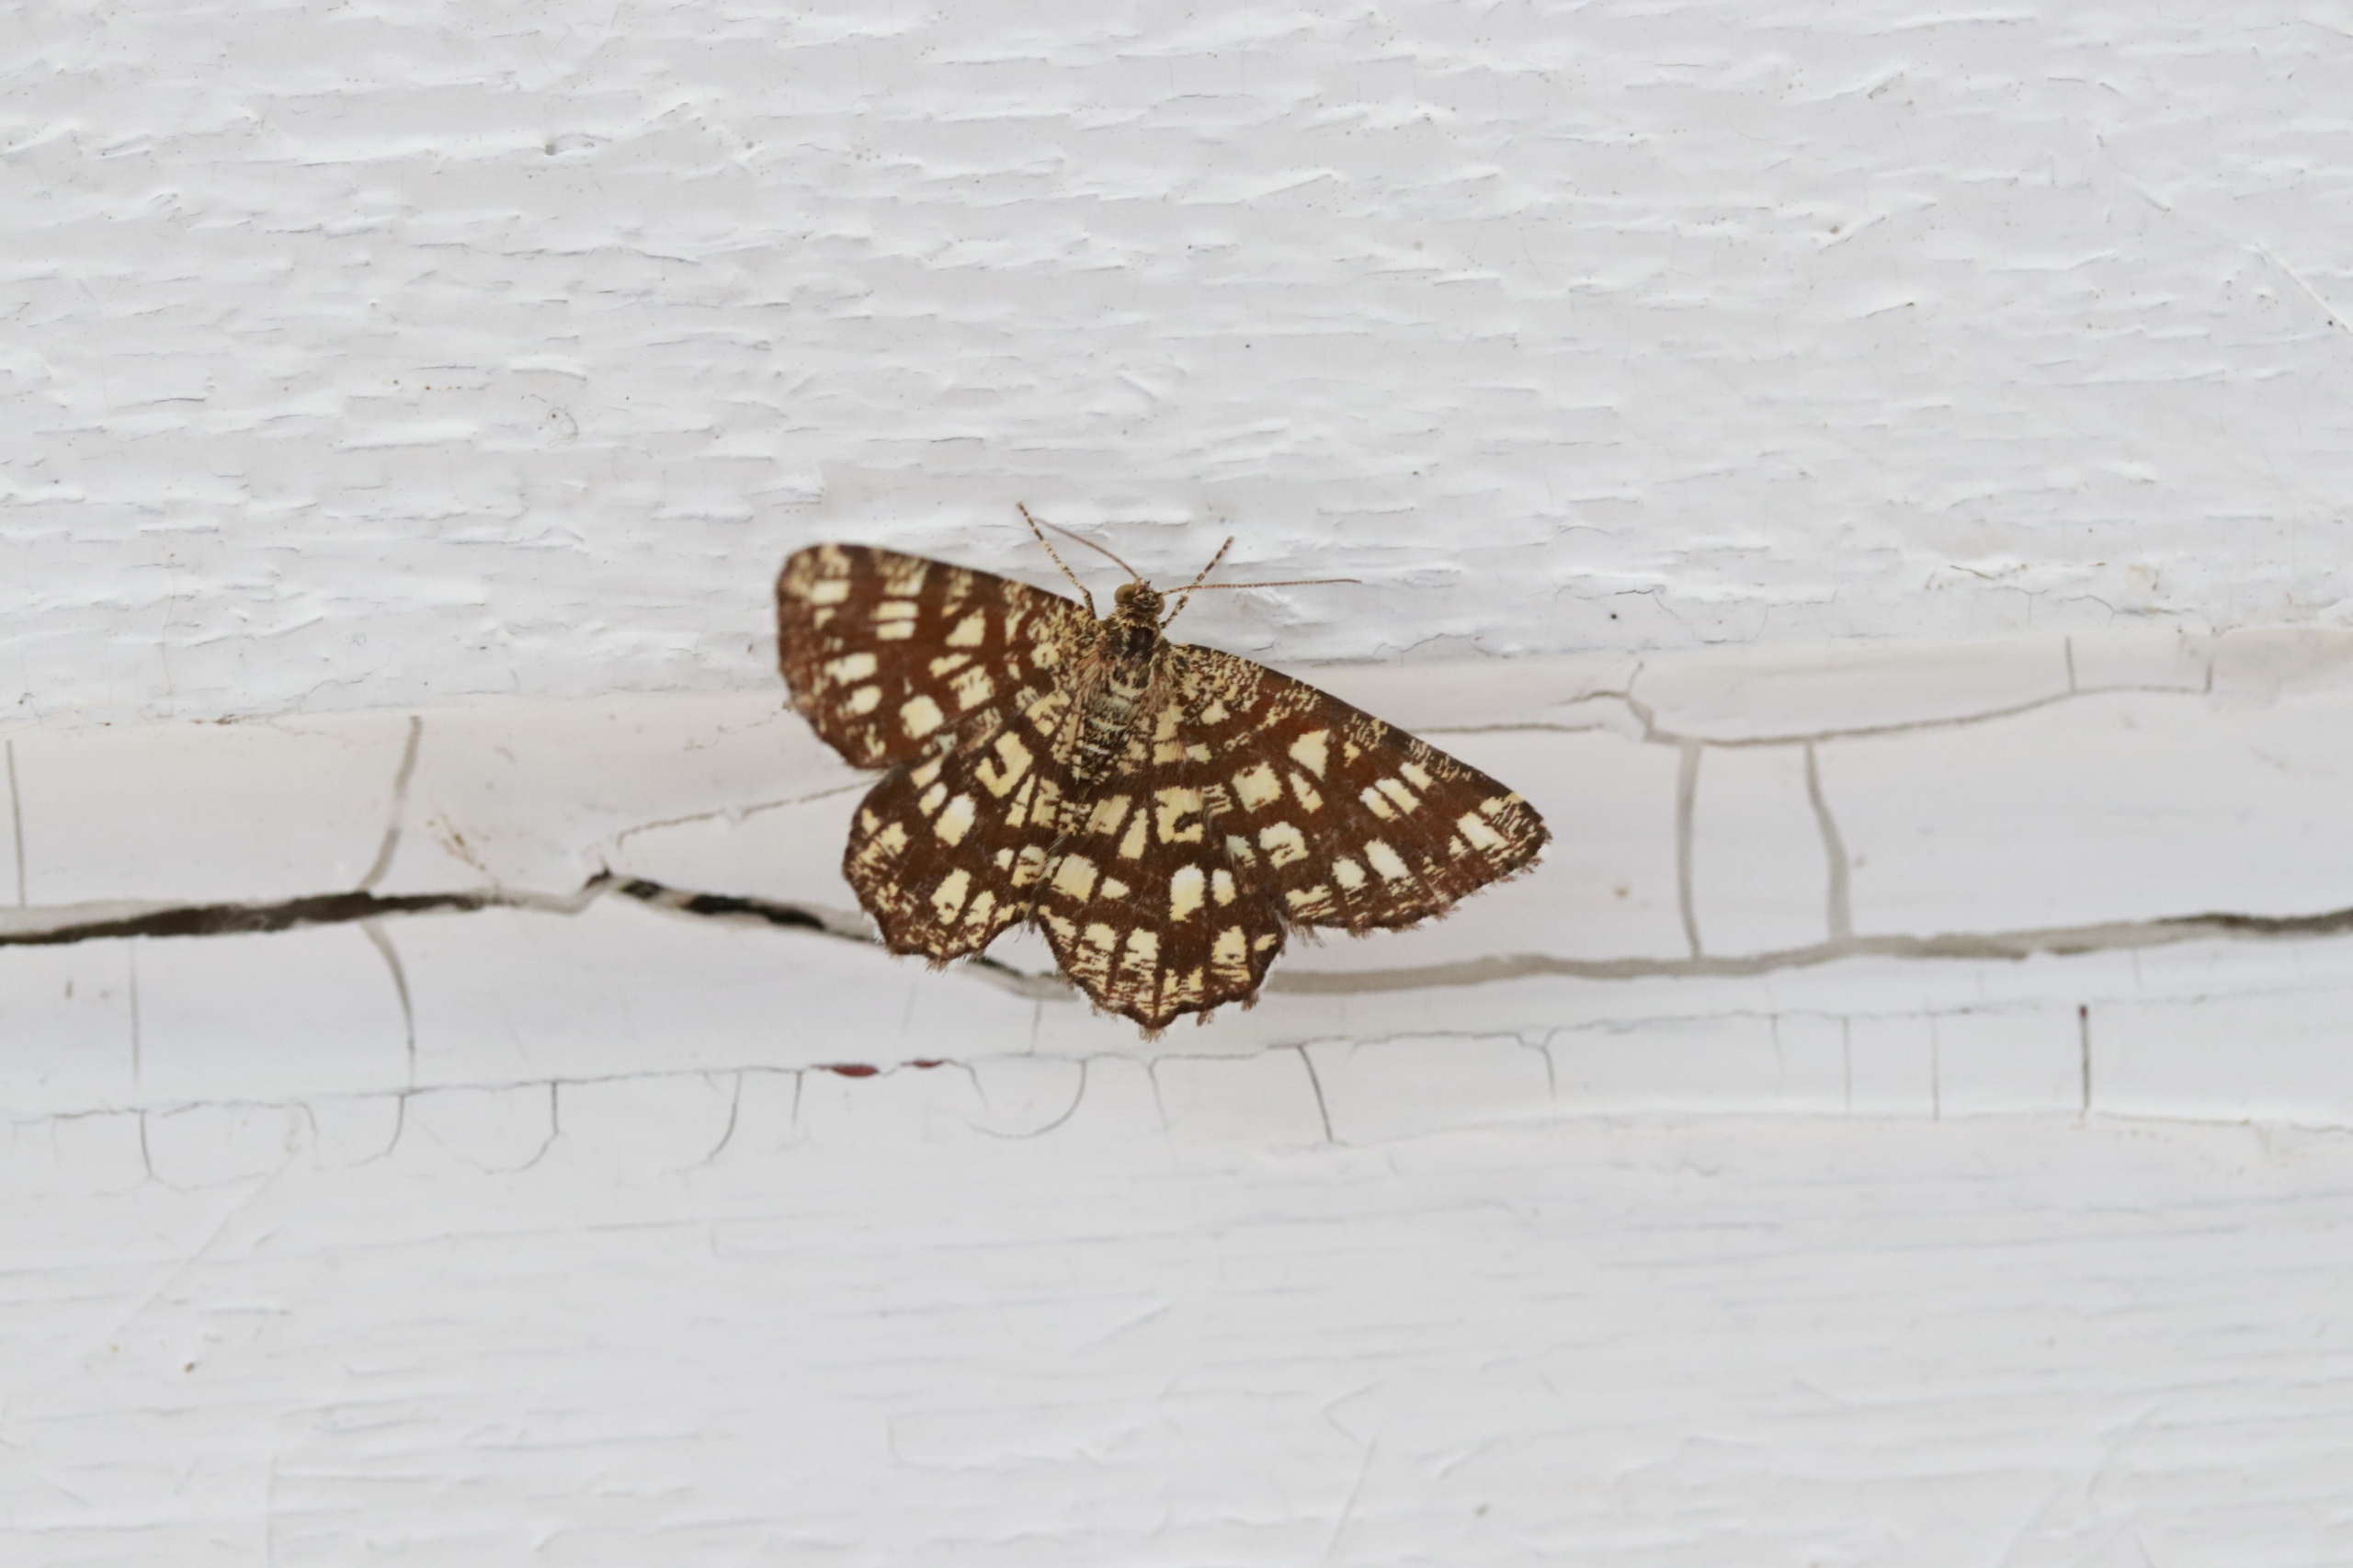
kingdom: Animalia
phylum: Arthropoda
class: Insecta
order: Lepidoptera
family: Geometridae
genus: Chiasmia
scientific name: Chiasmia clathrata
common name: Kløvermåler
